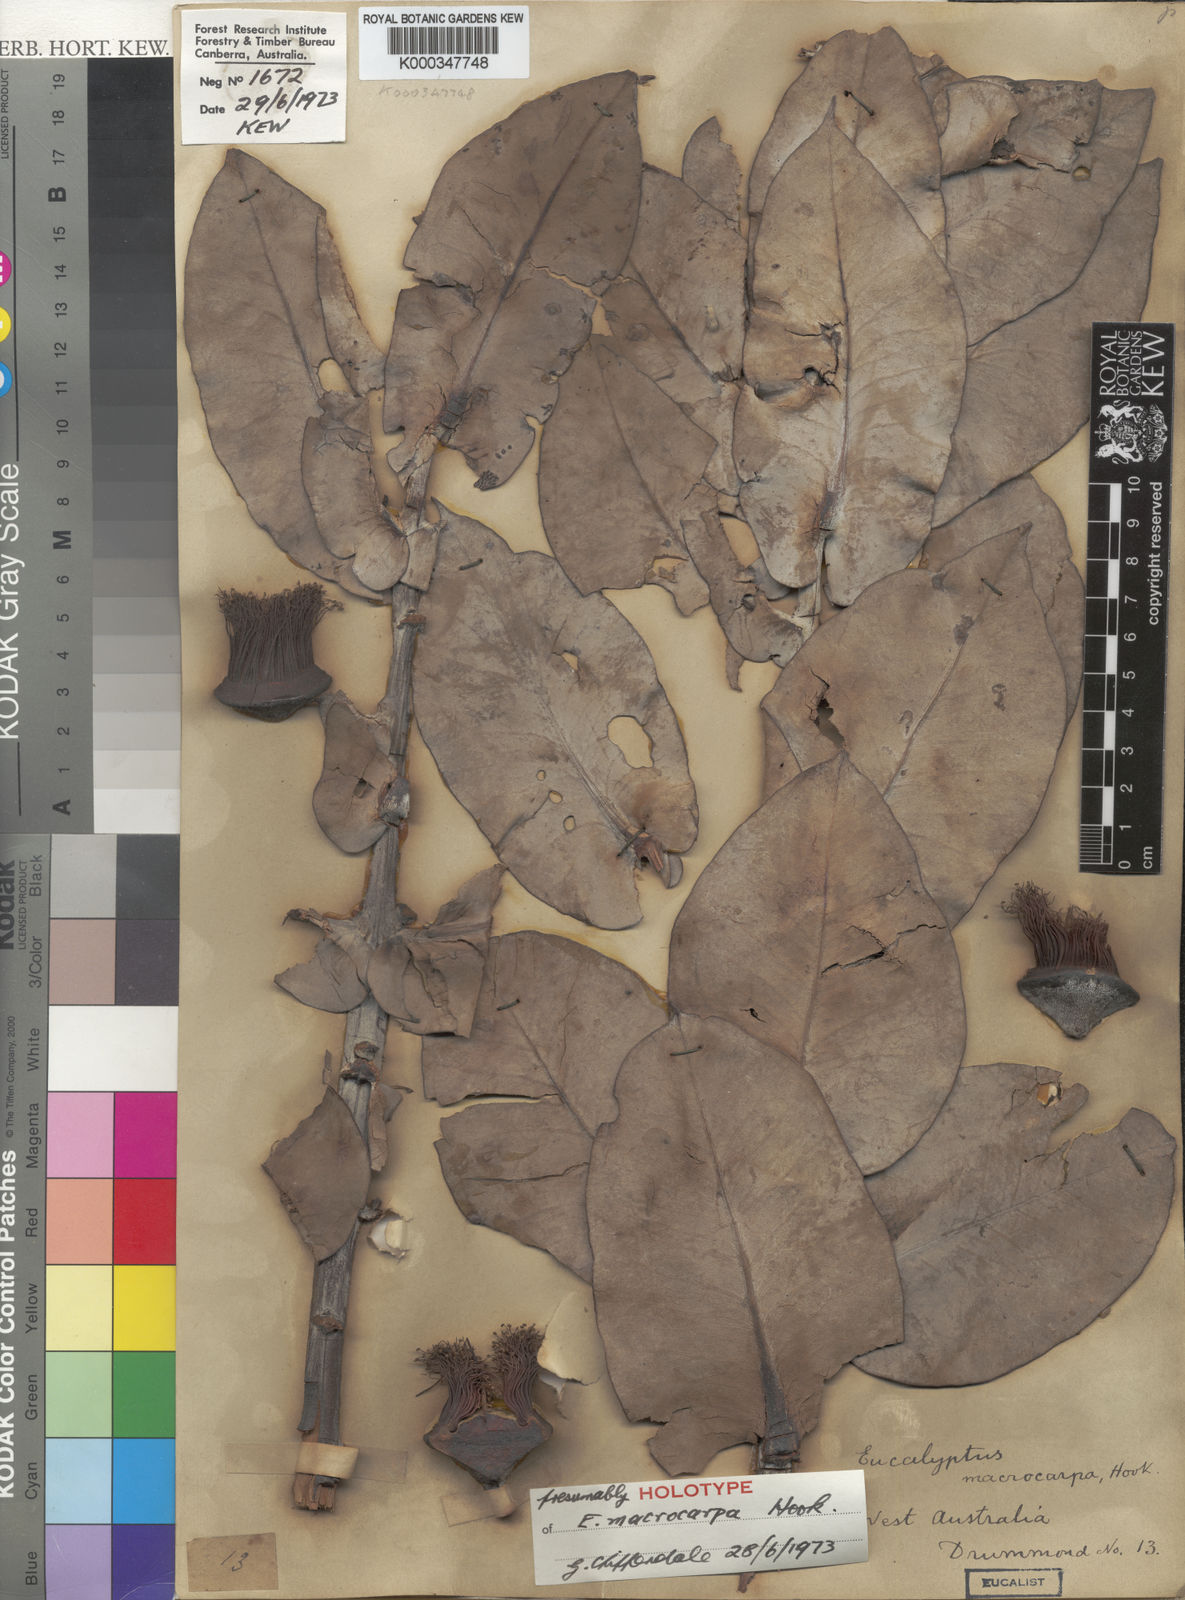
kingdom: Plantae
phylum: Tracheophyta
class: Magnoliopsida
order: Myrtales
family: Myrtaceae
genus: Eucalyptus
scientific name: Eucalyptus macrocarpa
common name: Mottlecah
